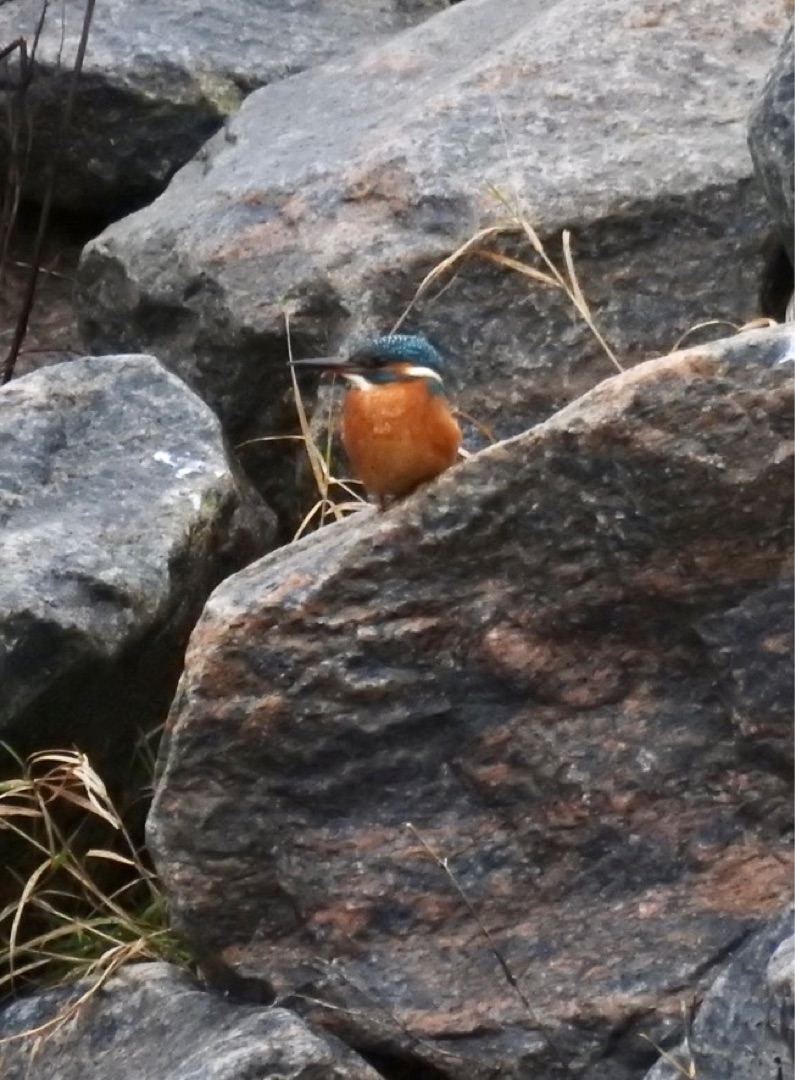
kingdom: Animalia
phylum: Chordata
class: Aves
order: Coraciiformes
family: Alcedinidae
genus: Alcedo
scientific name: Alcedo atthis
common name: Isfugl
